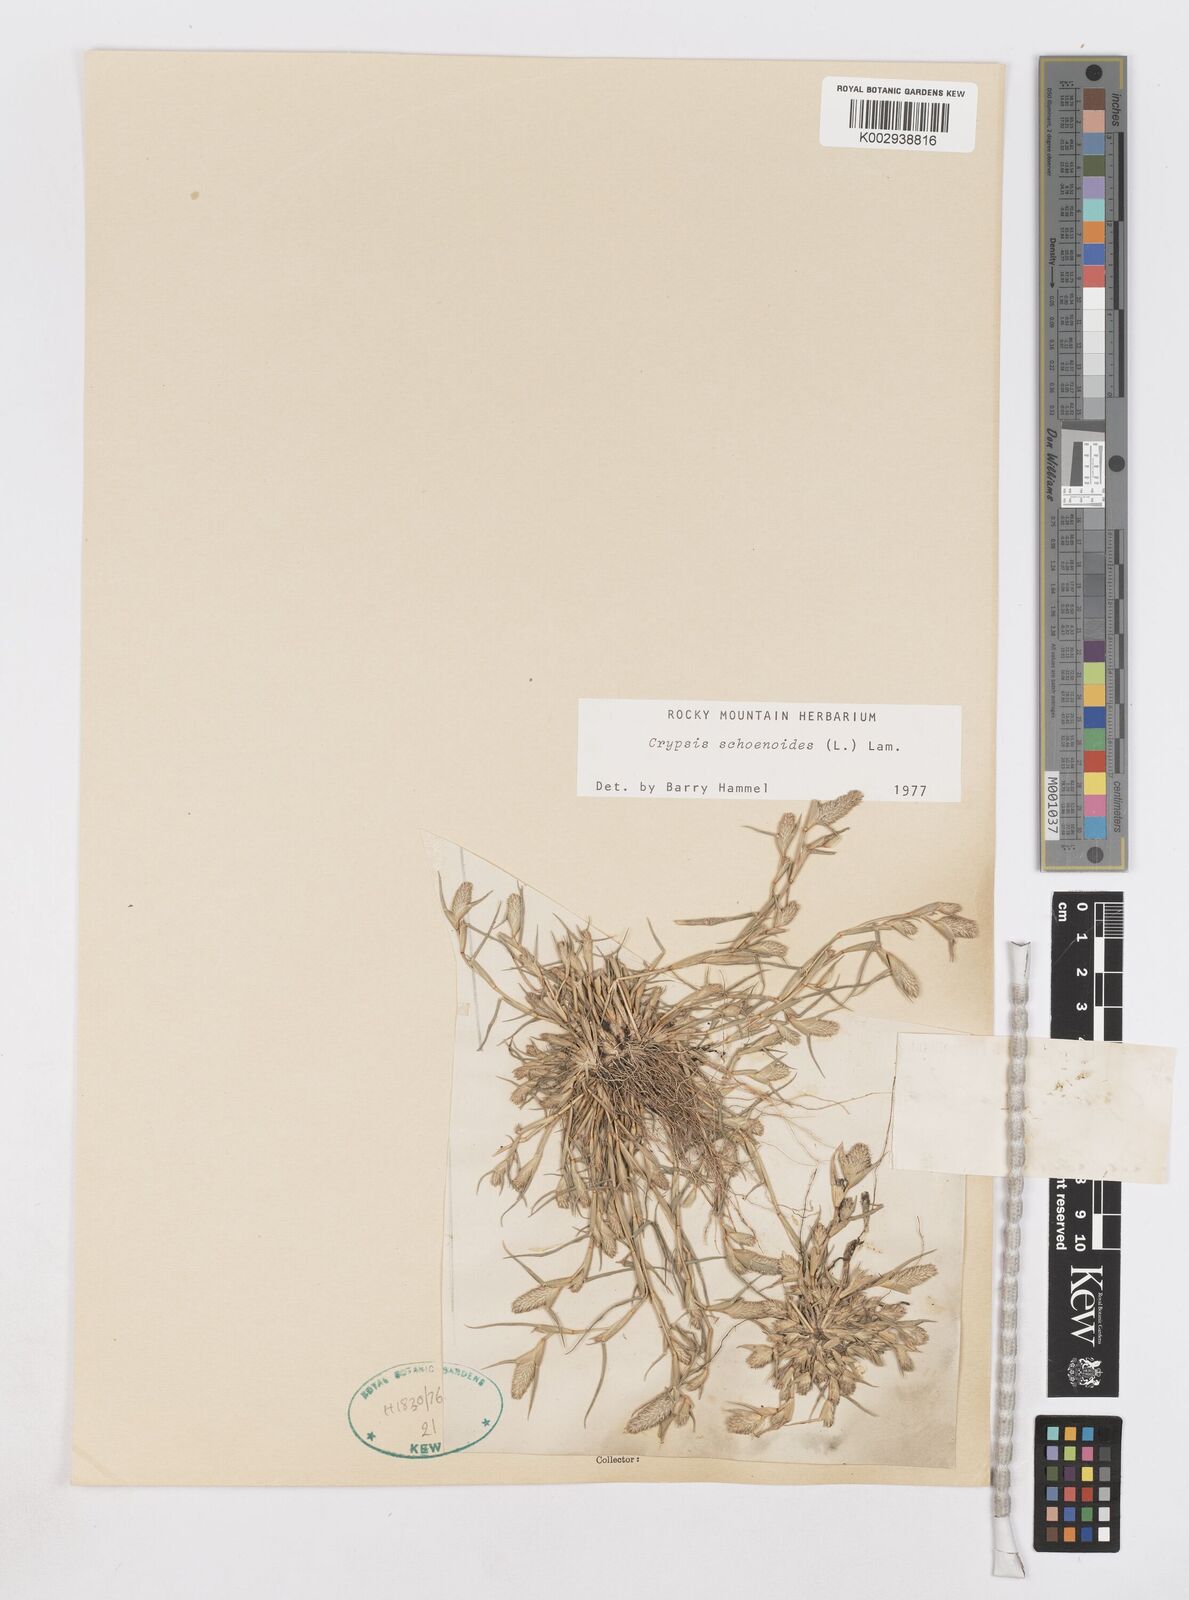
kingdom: Plantae
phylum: Tracheophyta
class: Liliopsida
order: Poales
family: Poaceae
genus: Sporobolus
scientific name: Sporobolus schoenoides
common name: Rush-like timothy
